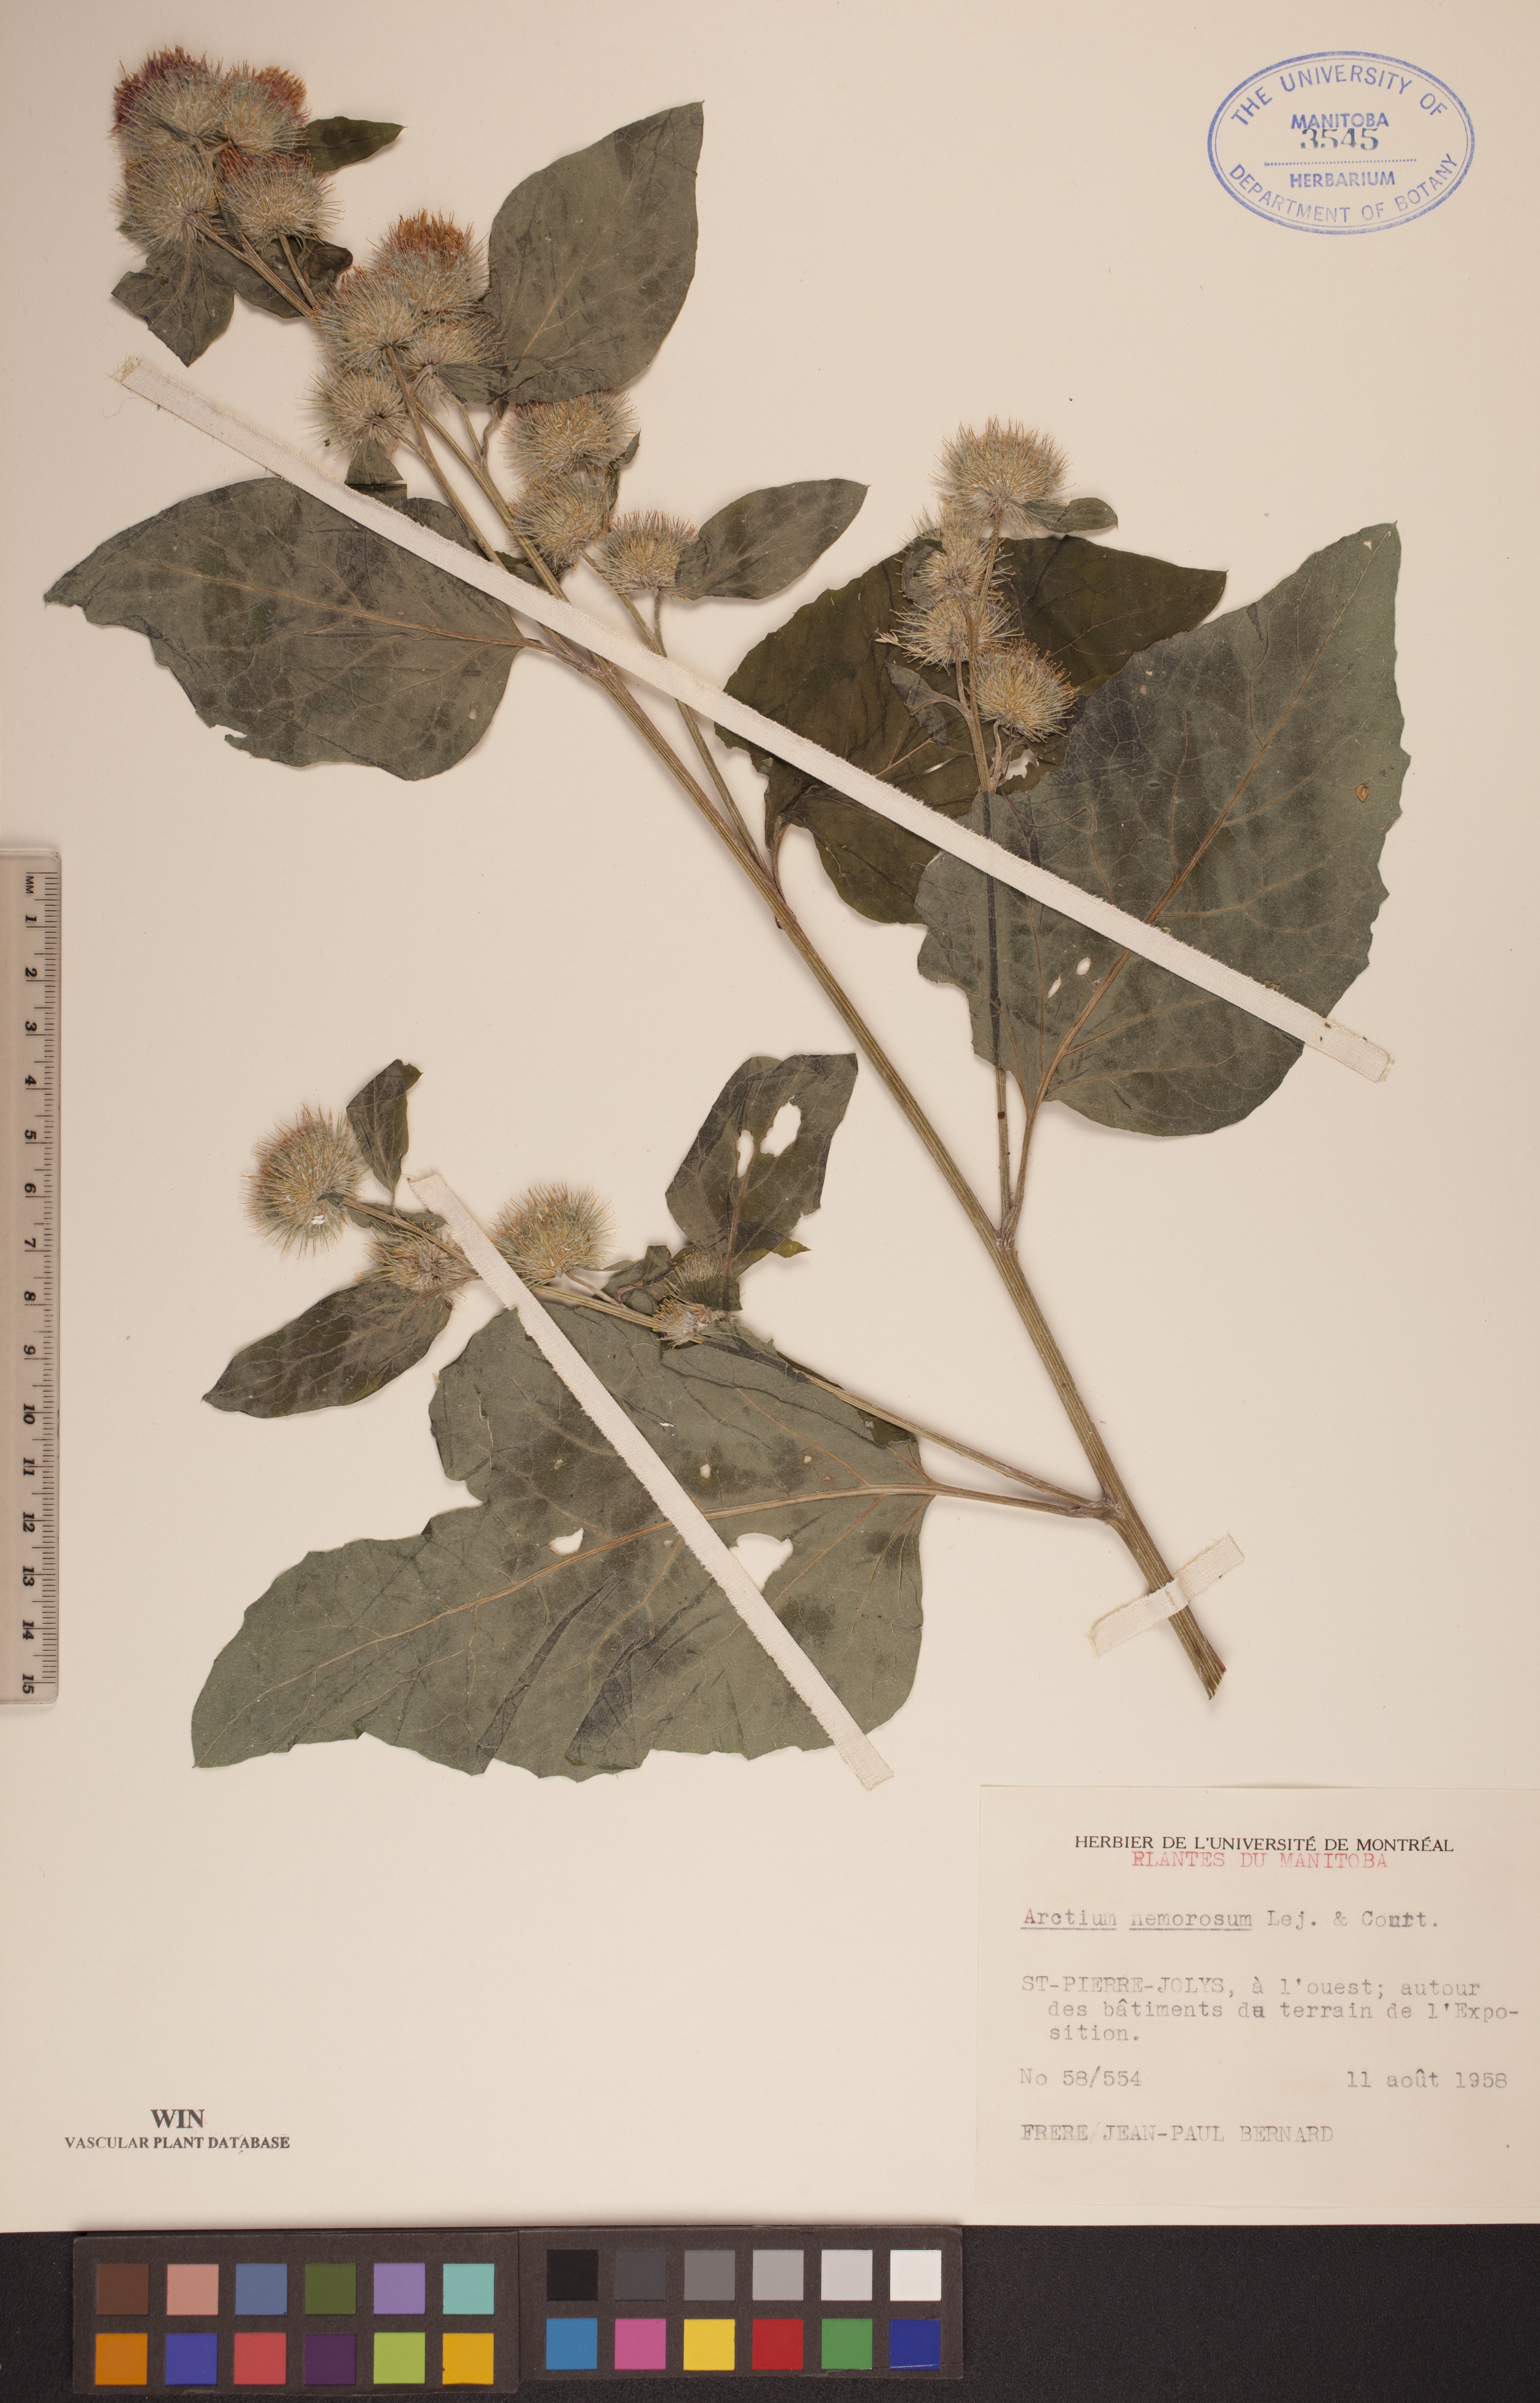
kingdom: Plantae
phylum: Tracheophyta
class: Magnoliopsida
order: Asterales
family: Asteraceae
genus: Arctium
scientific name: Arctium nemorosum
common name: Wood burdock
